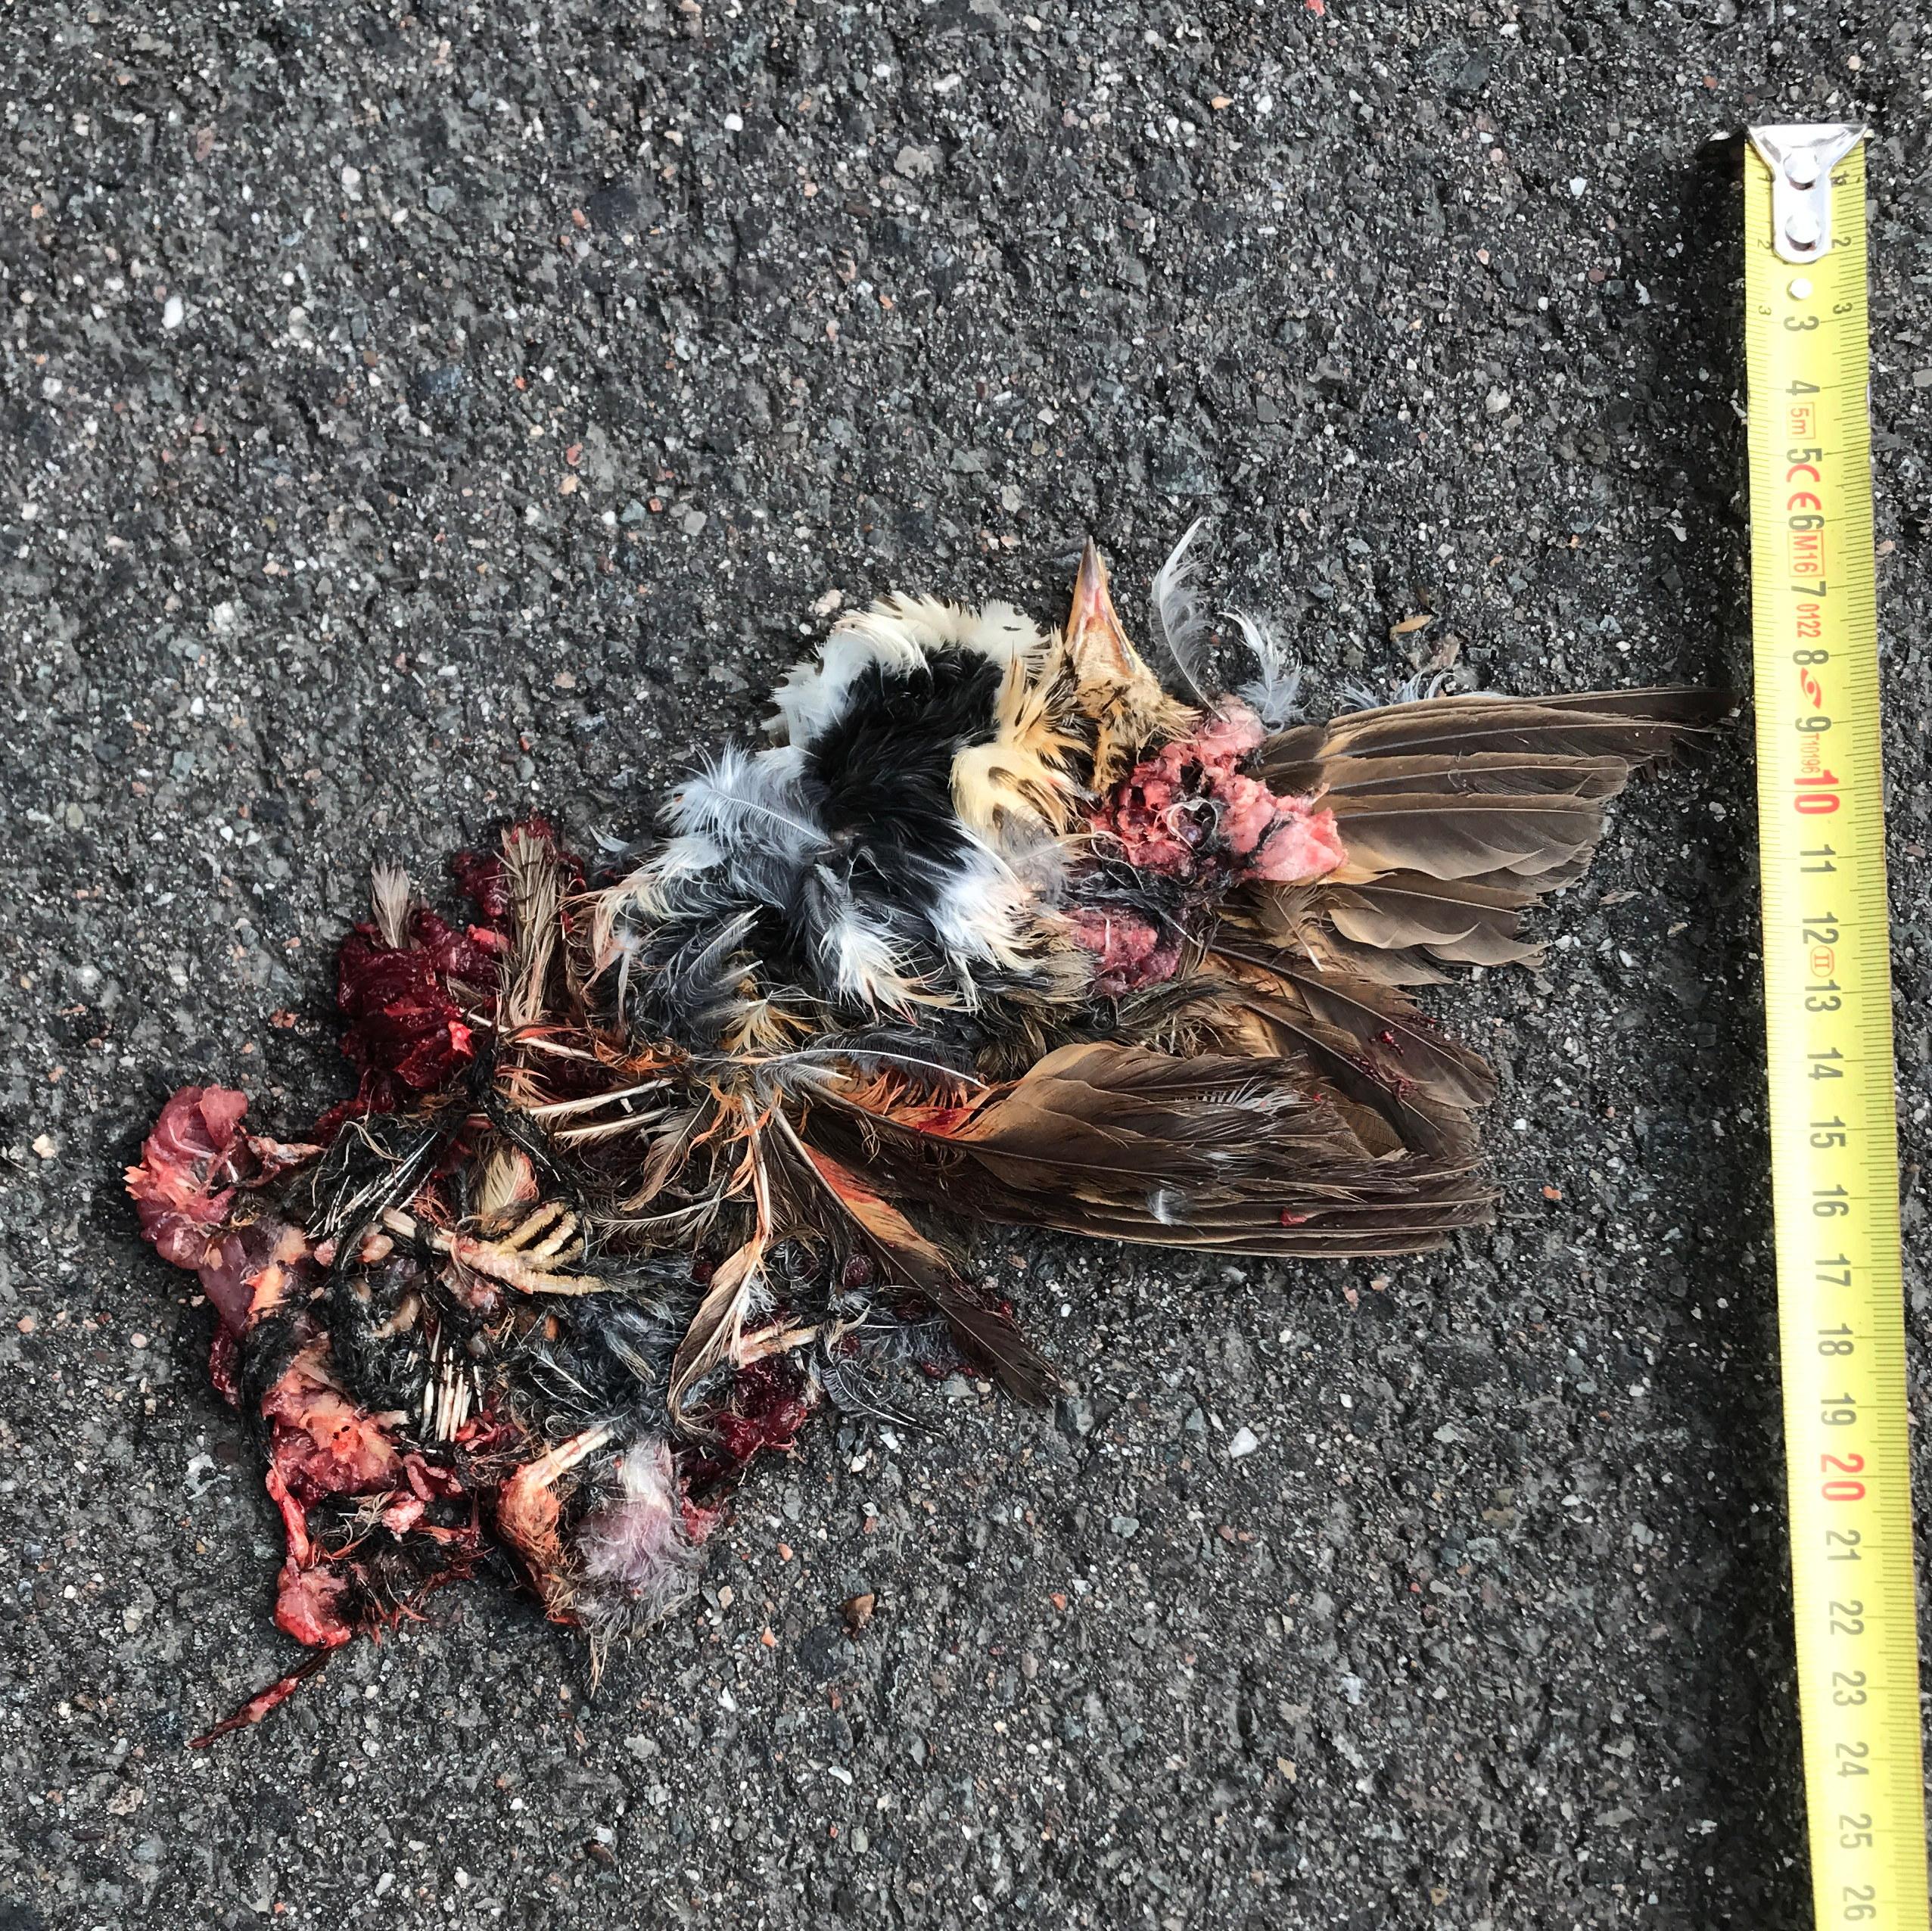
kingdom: Animalia
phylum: Chordata
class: Aves
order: Passeriformes
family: Turdidae
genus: Turdus
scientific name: Turdus philomelos
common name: Song thrush
